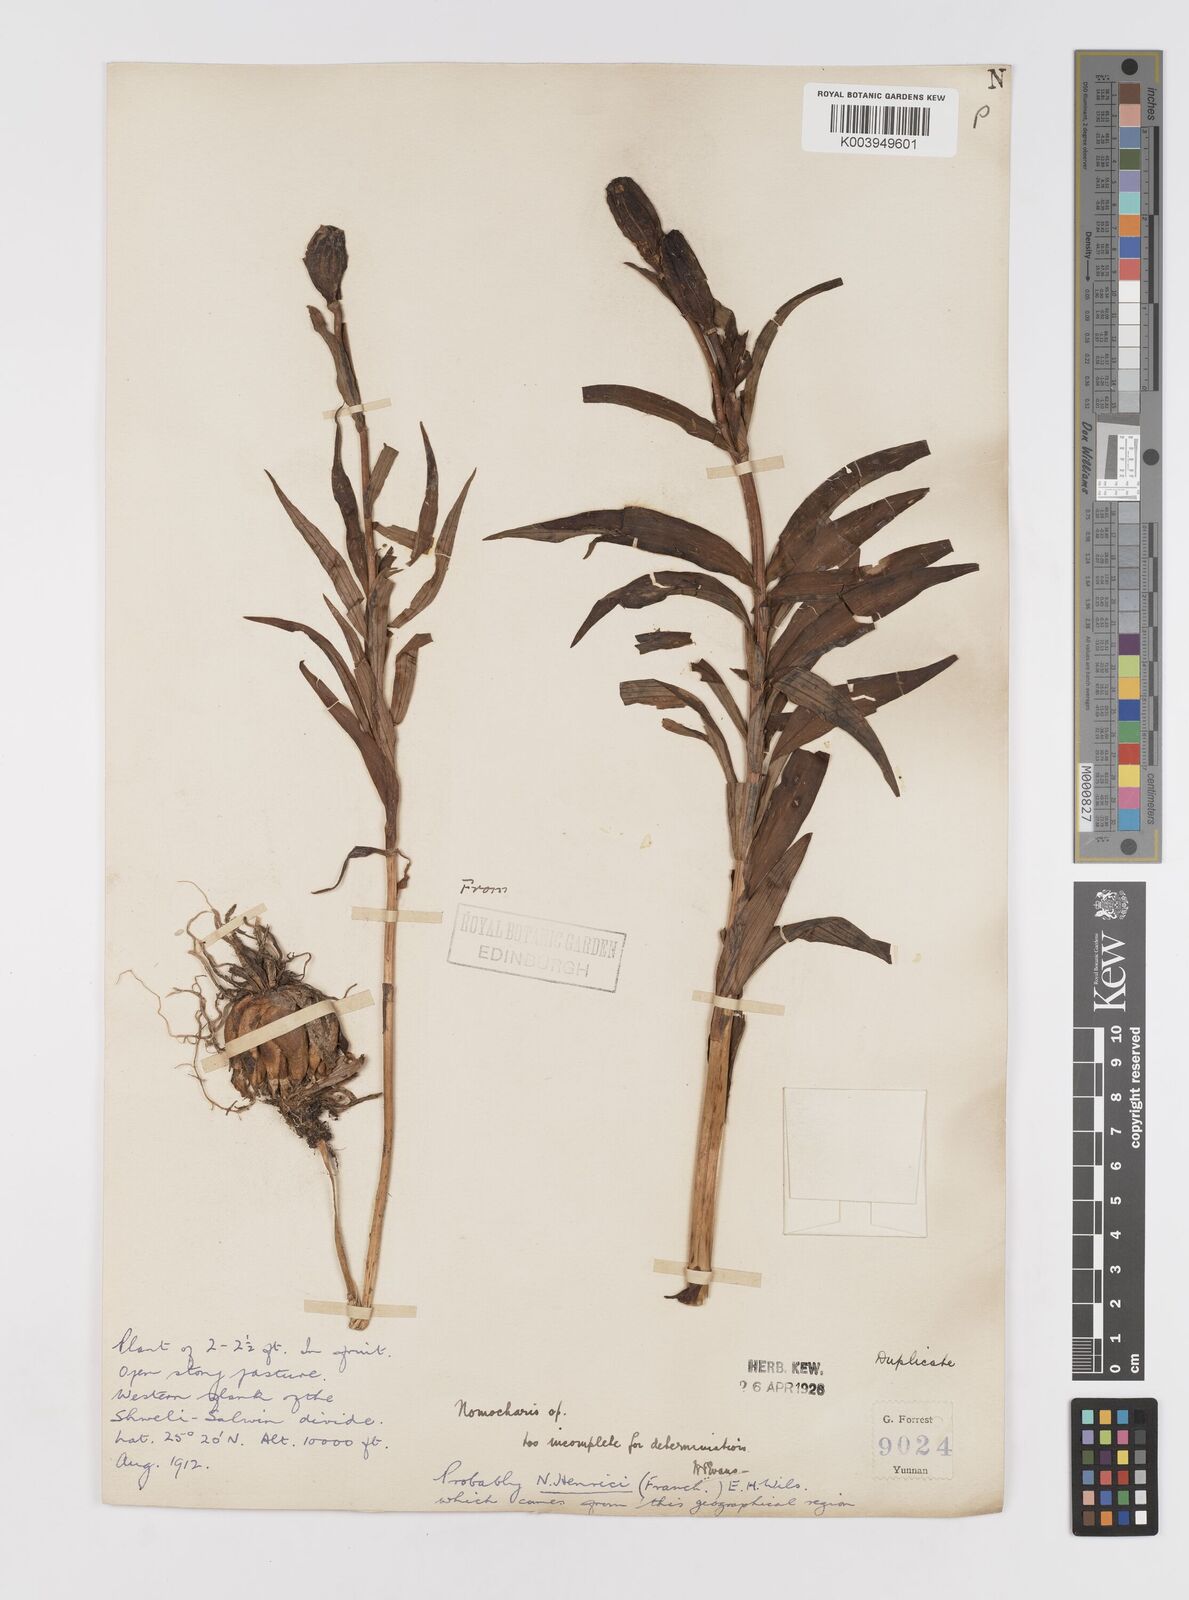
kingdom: Plantae
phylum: Tracheophyta
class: Liliopsida
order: Liliales
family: Liliaceae
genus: Lilium
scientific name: Lilium henrici
